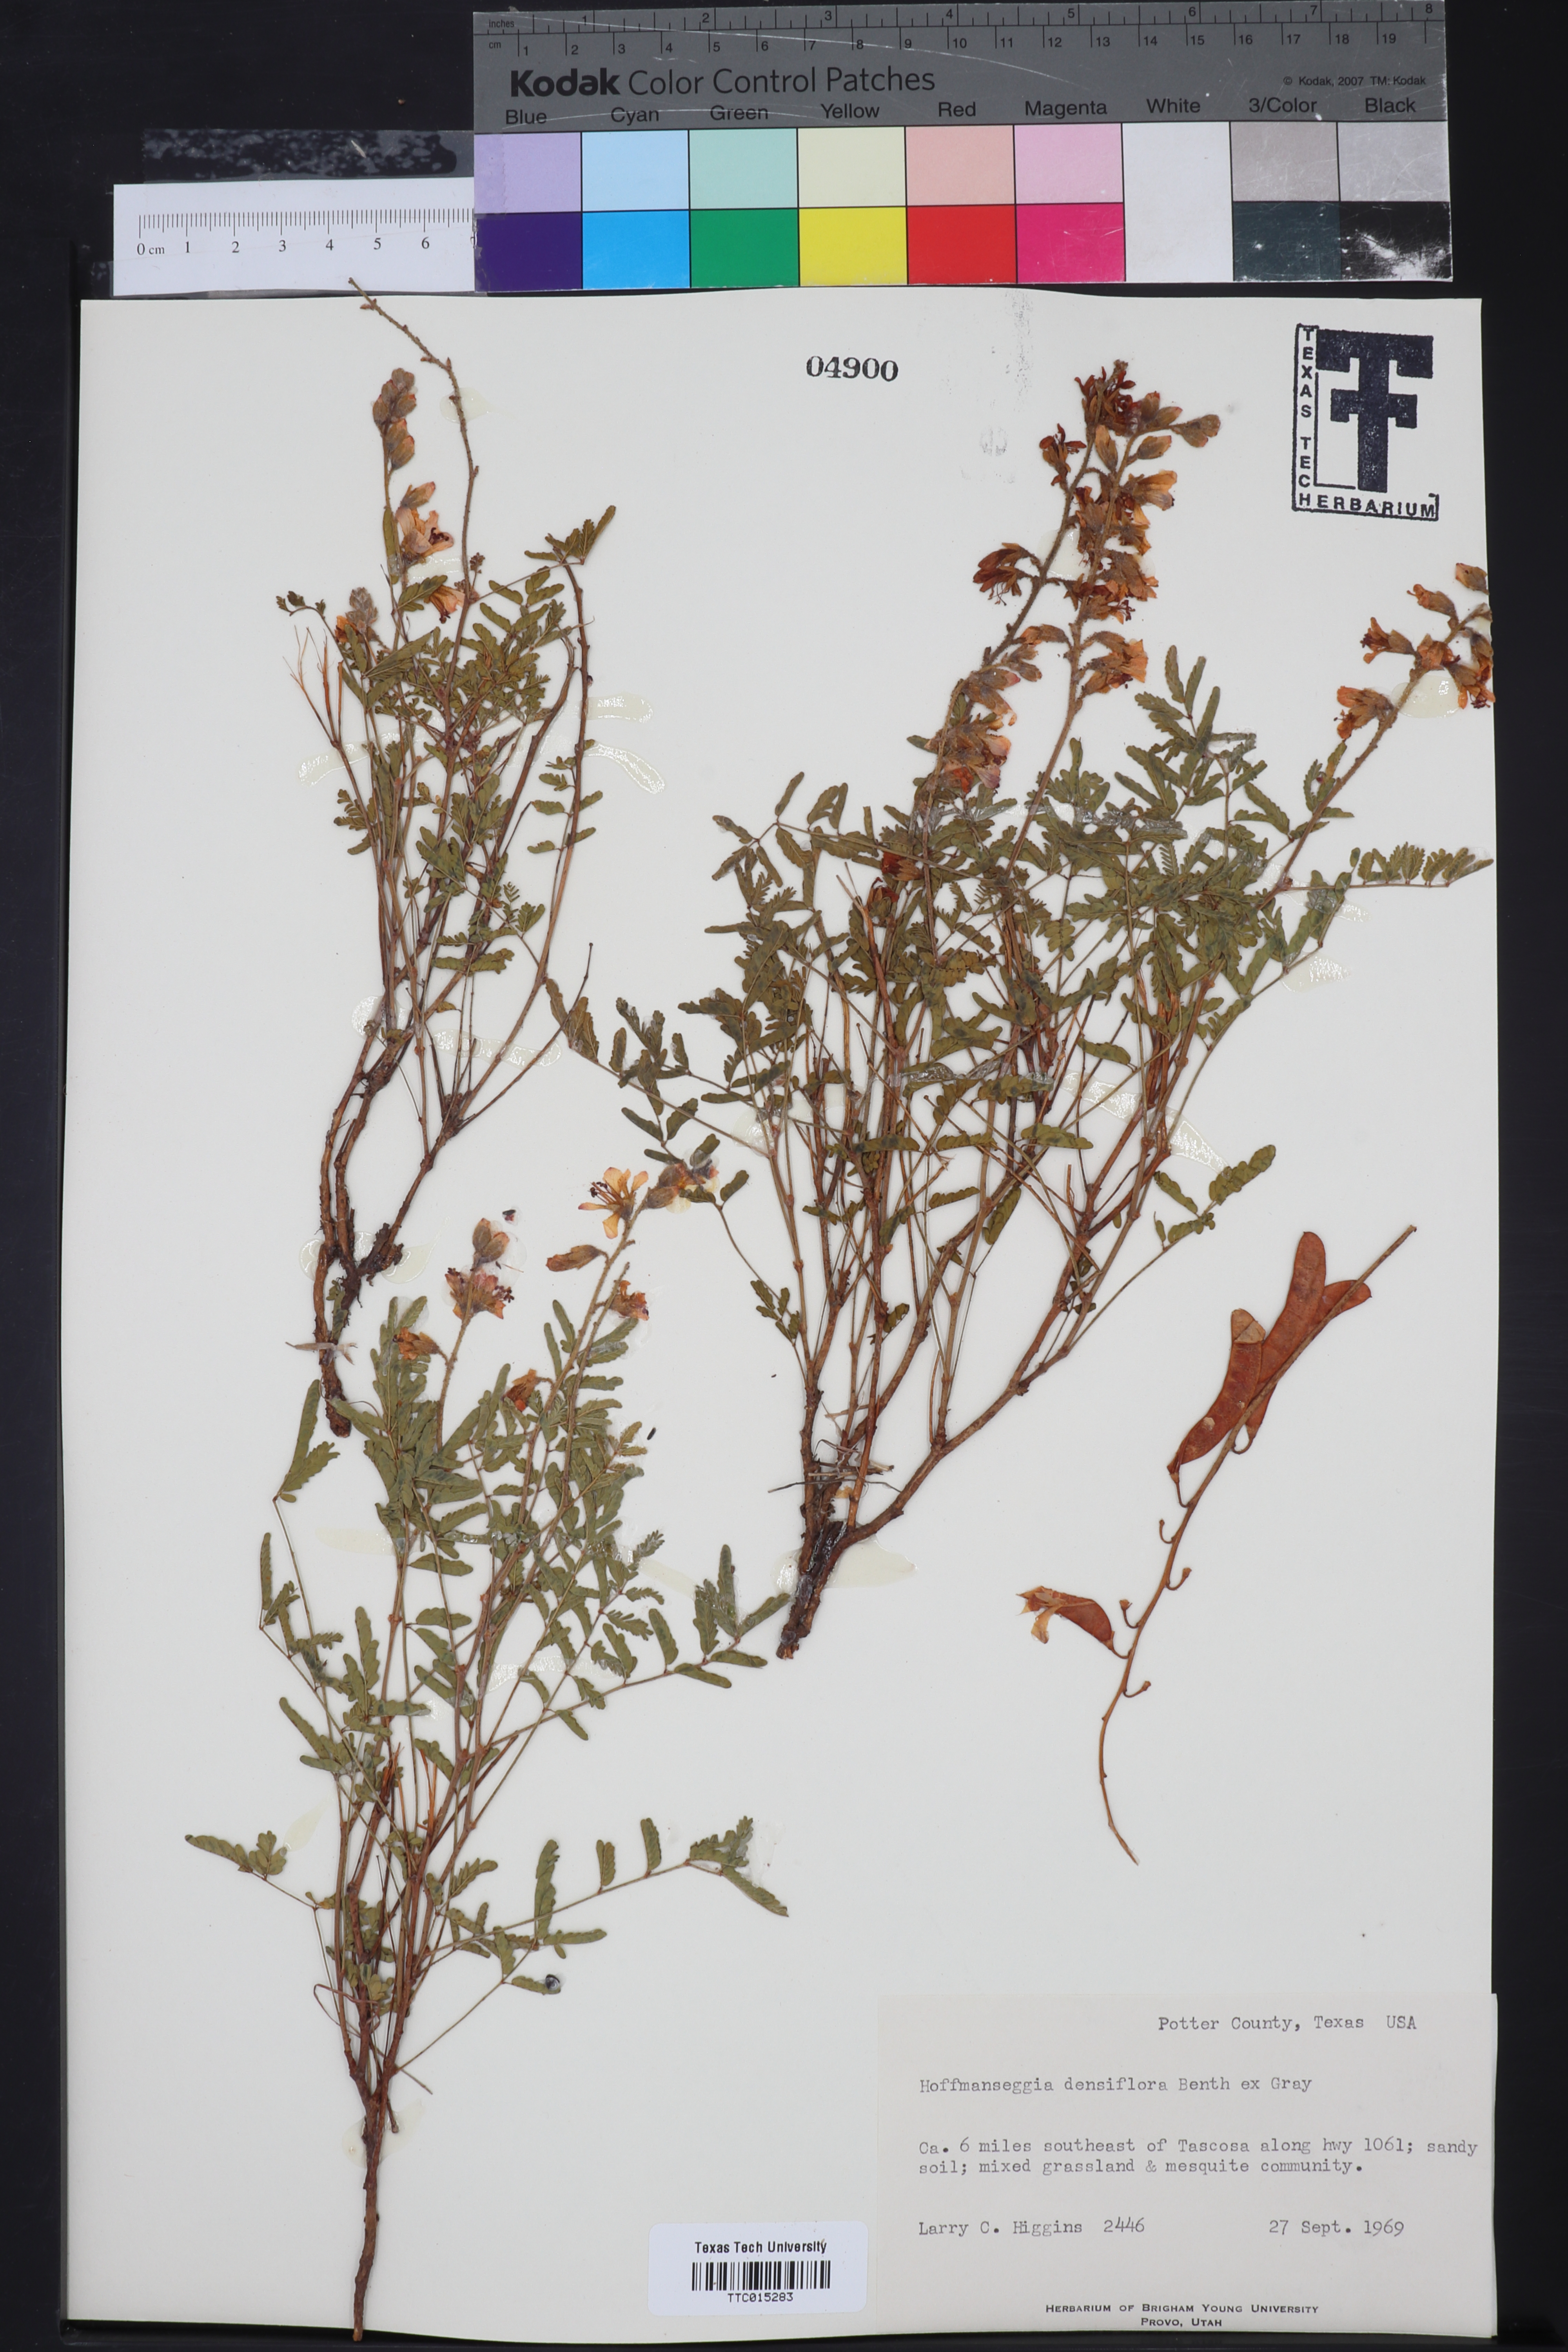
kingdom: Plantae
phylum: Tracheophyta
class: Magnoliopsida
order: Fabales
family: Fabaceae
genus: Hoffmannseggia
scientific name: Hoffmannseggia glauca
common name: Pignut
